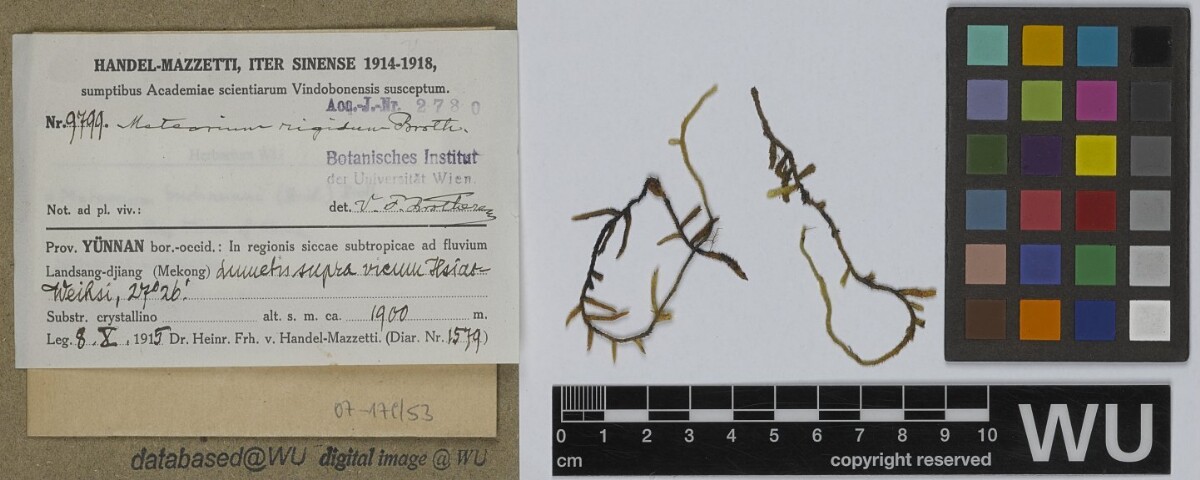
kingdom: Plantae
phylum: Bryophyta
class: Bryopsida
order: Hypnales
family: Meteoriaceae
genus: Meteorium
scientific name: Meteorium buchananii
